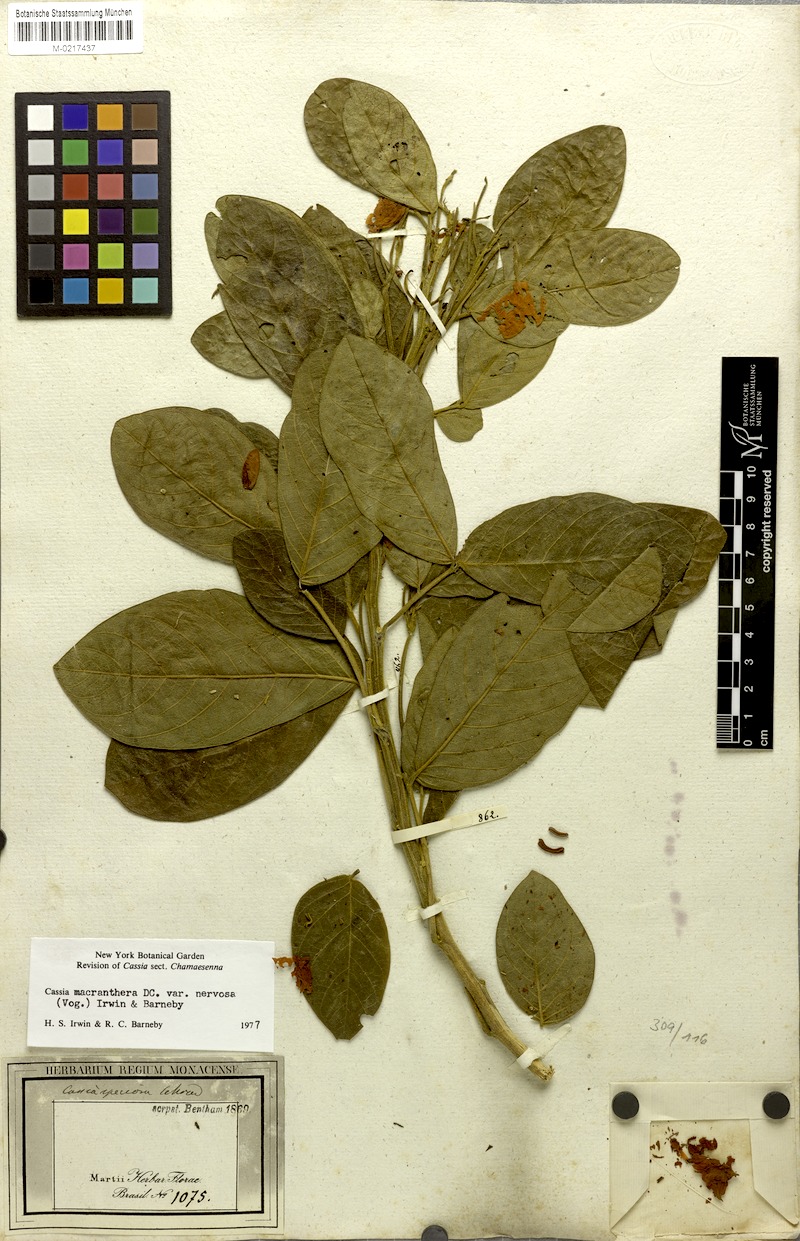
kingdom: Plantae
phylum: Tracheophyta
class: Magnoliopsida
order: Fabales
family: Fabaceae
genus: Senna
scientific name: Senna macranthera
